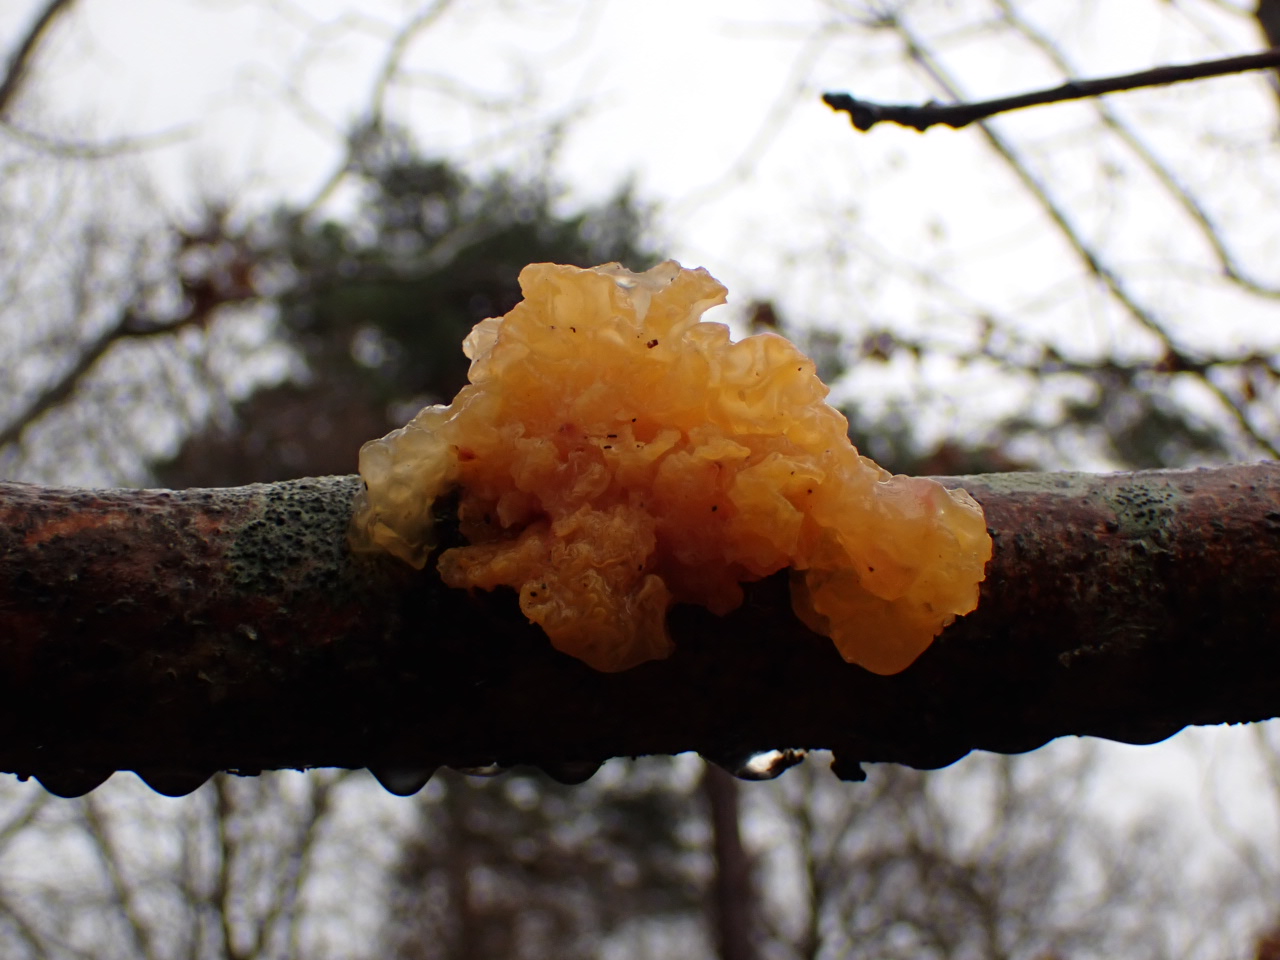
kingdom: Fungi
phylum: Basidiomycota
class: Tremellomycetes
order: Tremellales
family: Tremellaceae
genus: Tremella
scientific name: Tremella mesenterica
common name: gul bævresvamp
